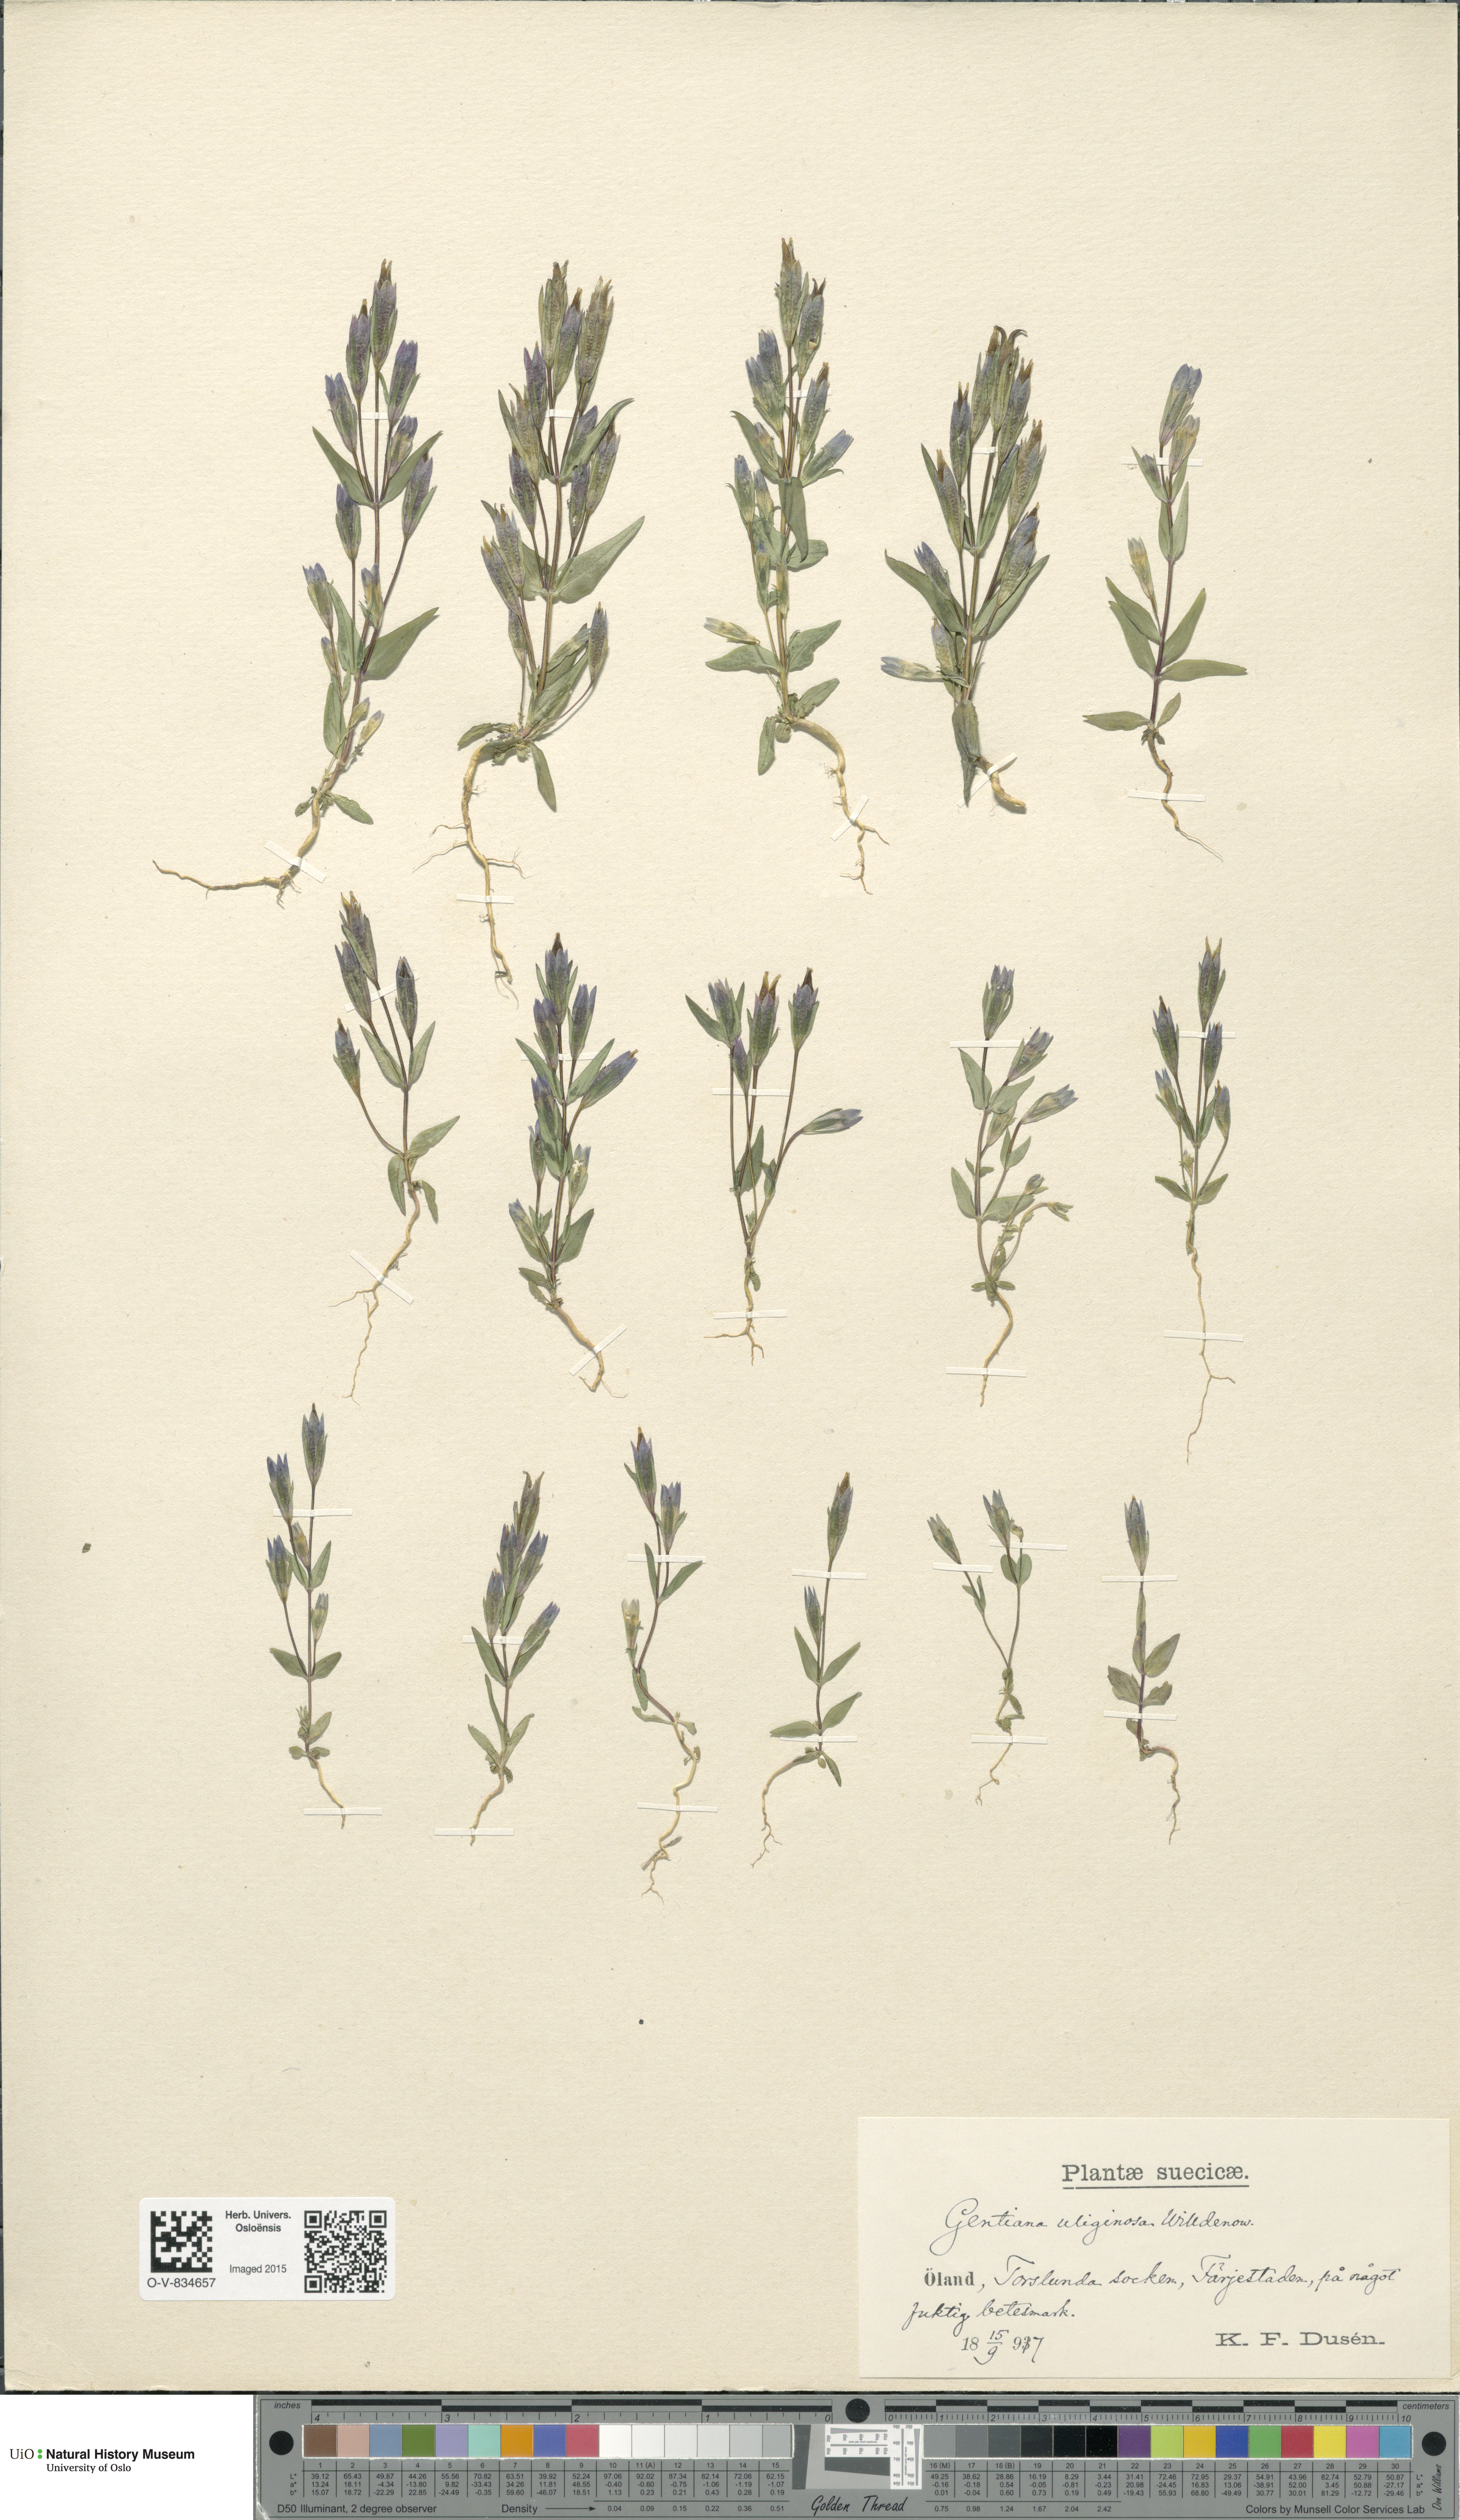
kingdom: Plantae
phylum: Tracheophyta
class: Magnoliopsida
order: Gentianales
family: Gentianaceae
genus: Gentianella
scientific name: Gentianella uliginosa
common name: Dune gentian
